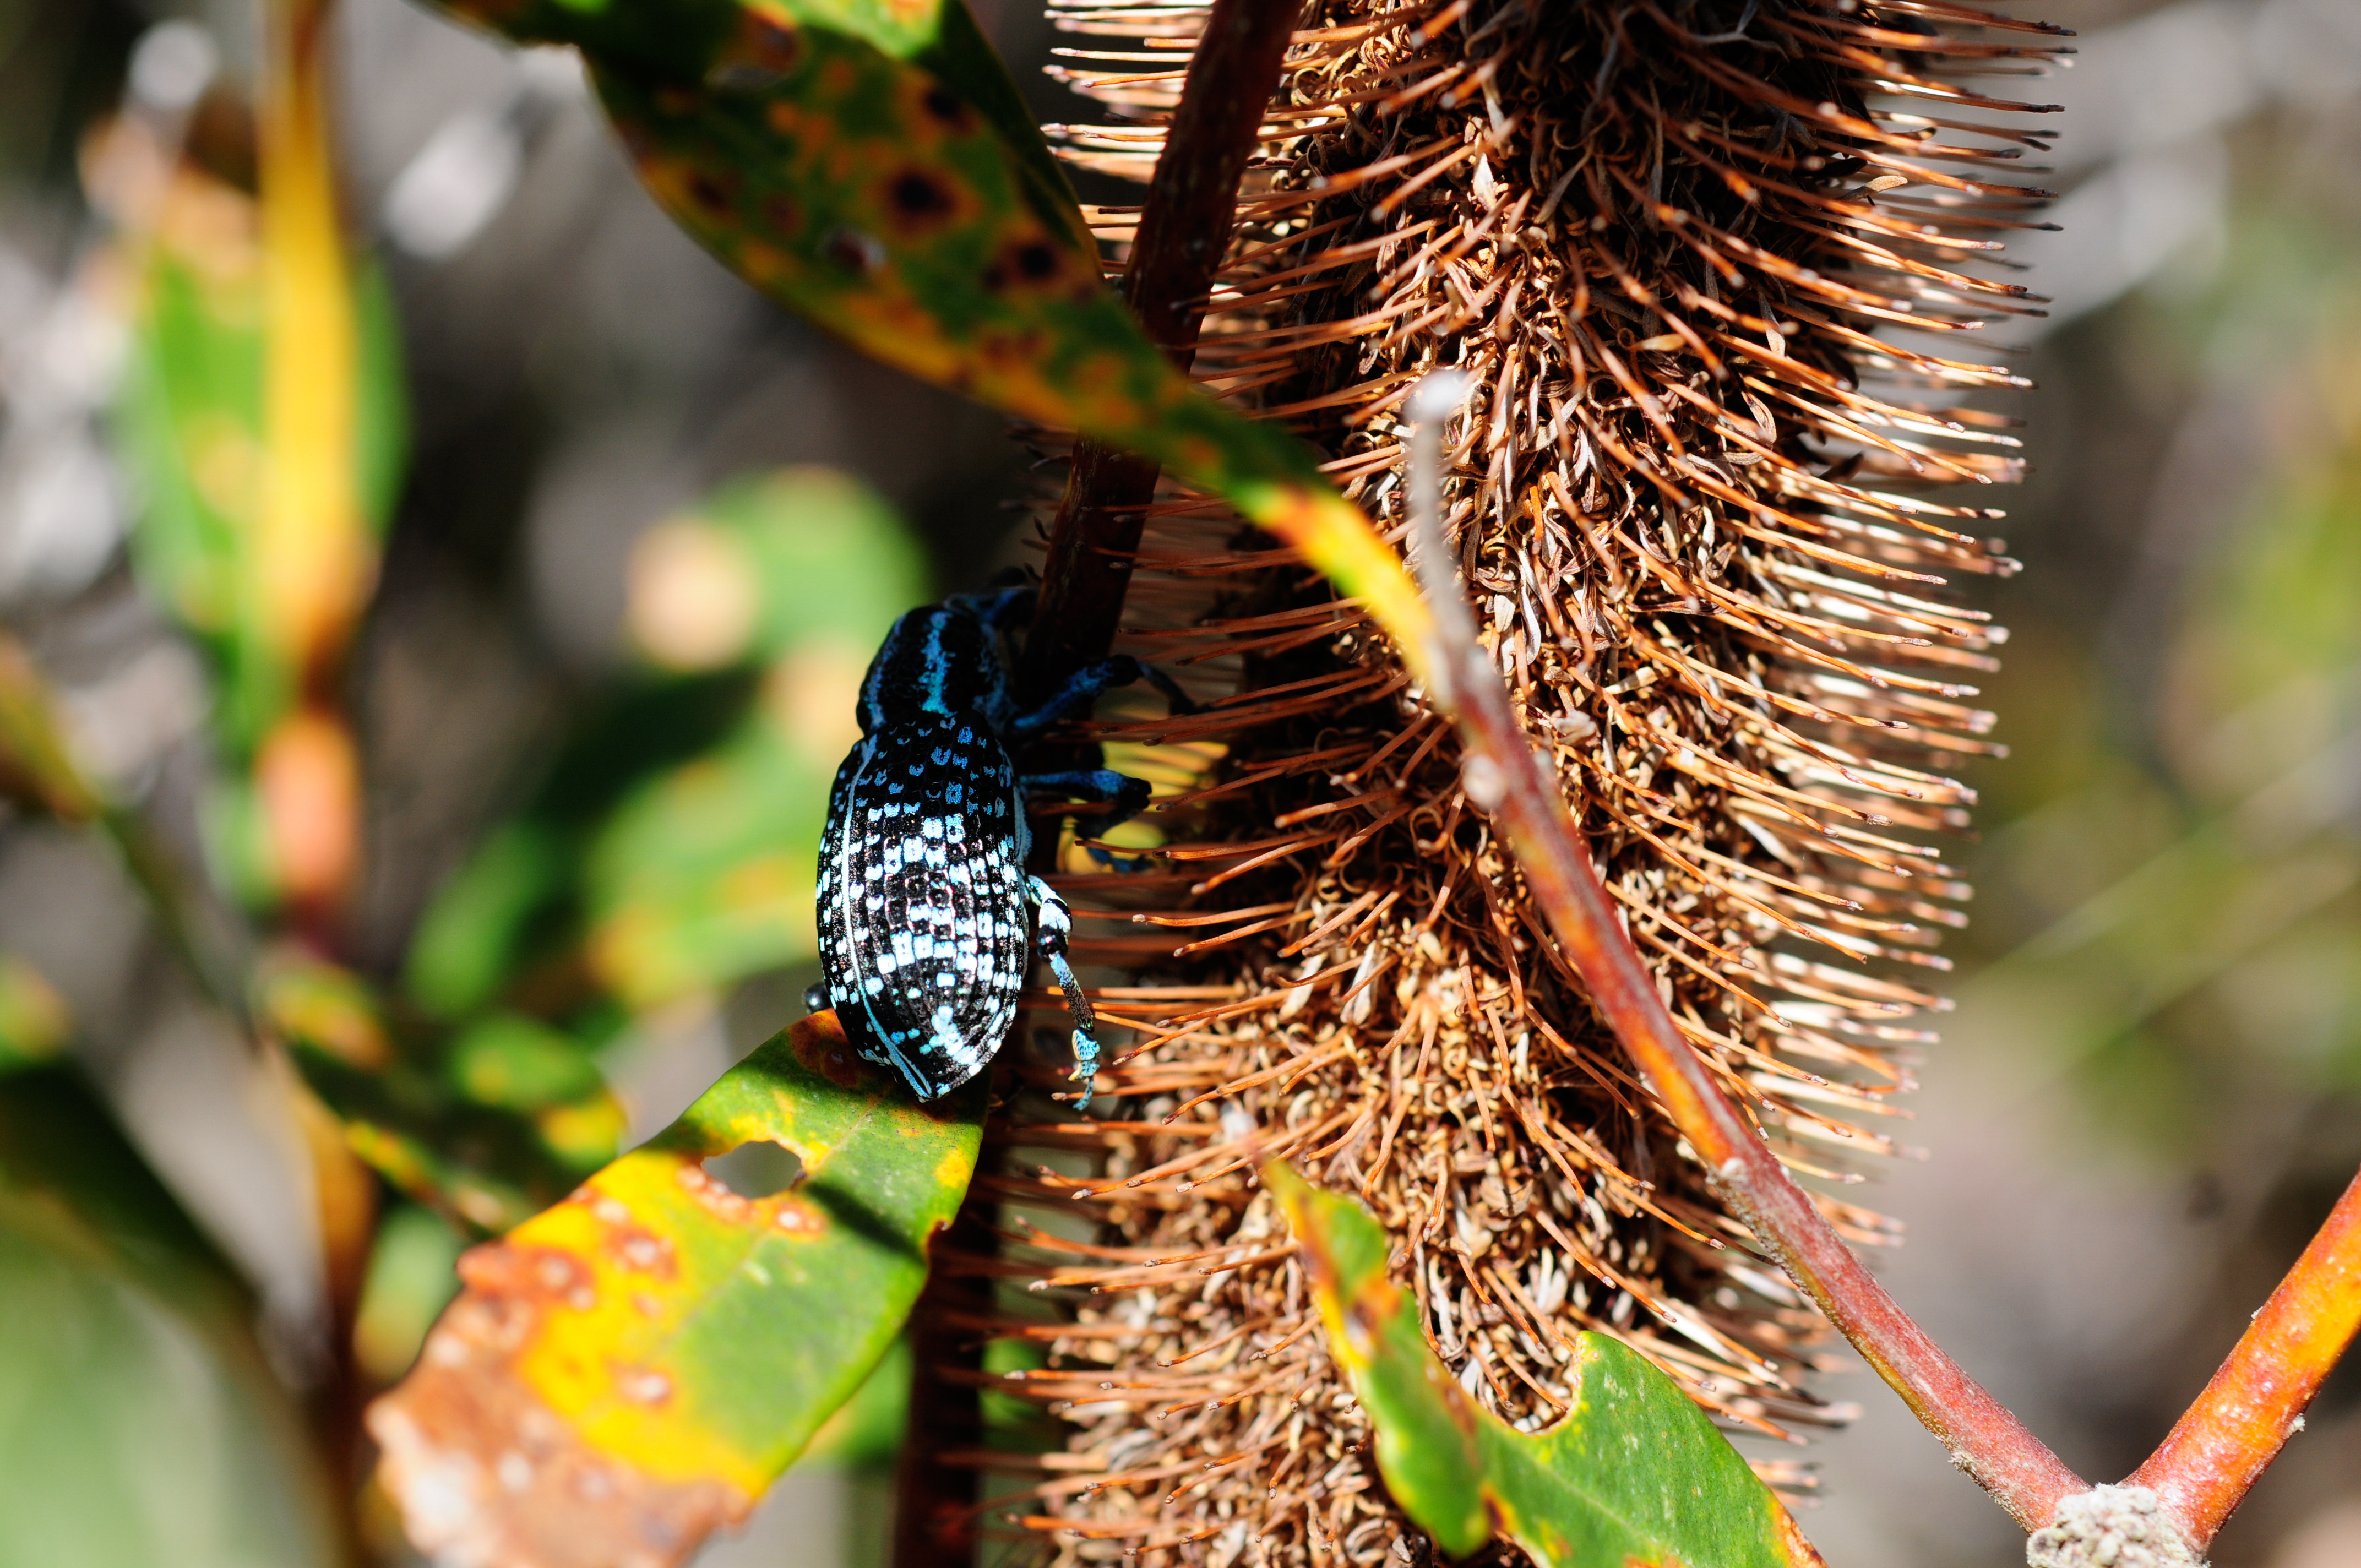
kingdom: Animalia
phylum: Arthropoda
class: Insecta
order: Coleoptera
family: Curculionidae
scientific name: Curculionidae
